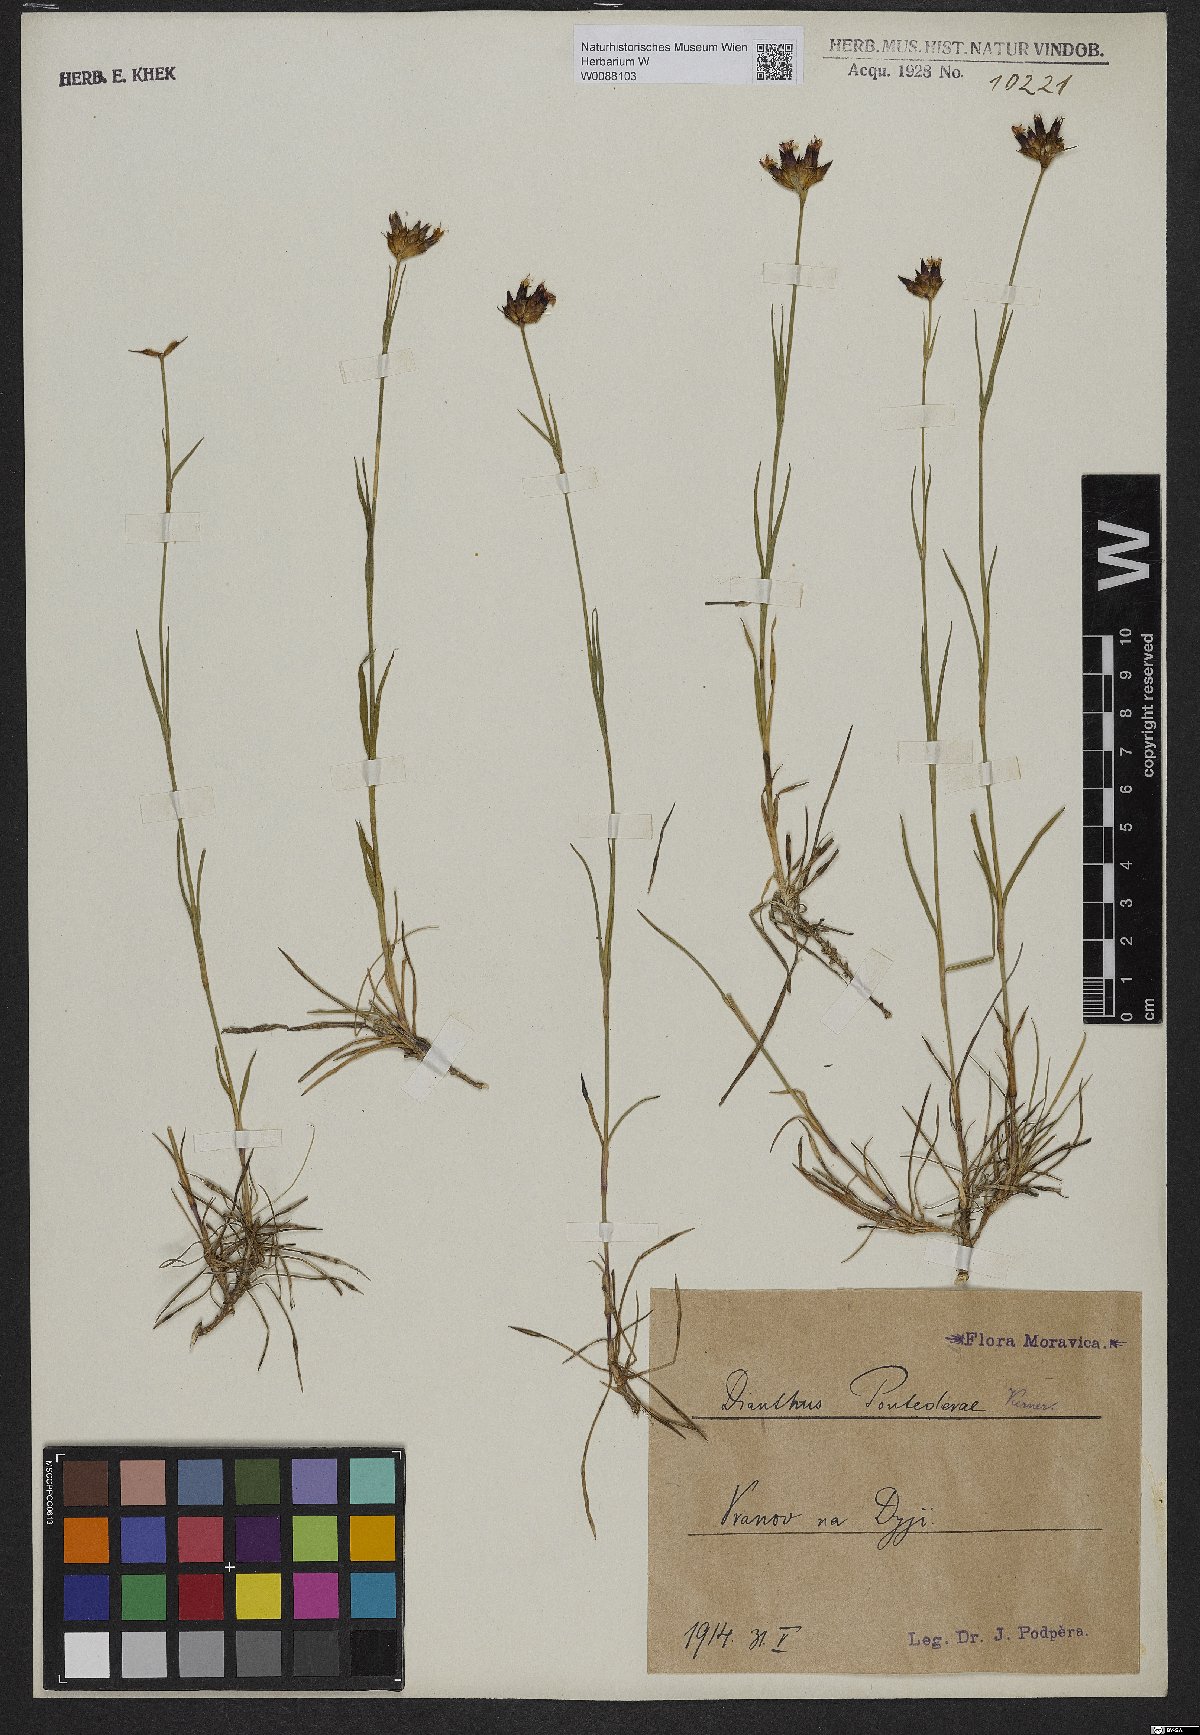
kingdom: Plantae
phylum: Tracheophyta
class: Magnoliopsida
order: Caryophyllales
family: Caryophyllaceae
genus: Dianthus
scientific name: Dianthus pontederae
